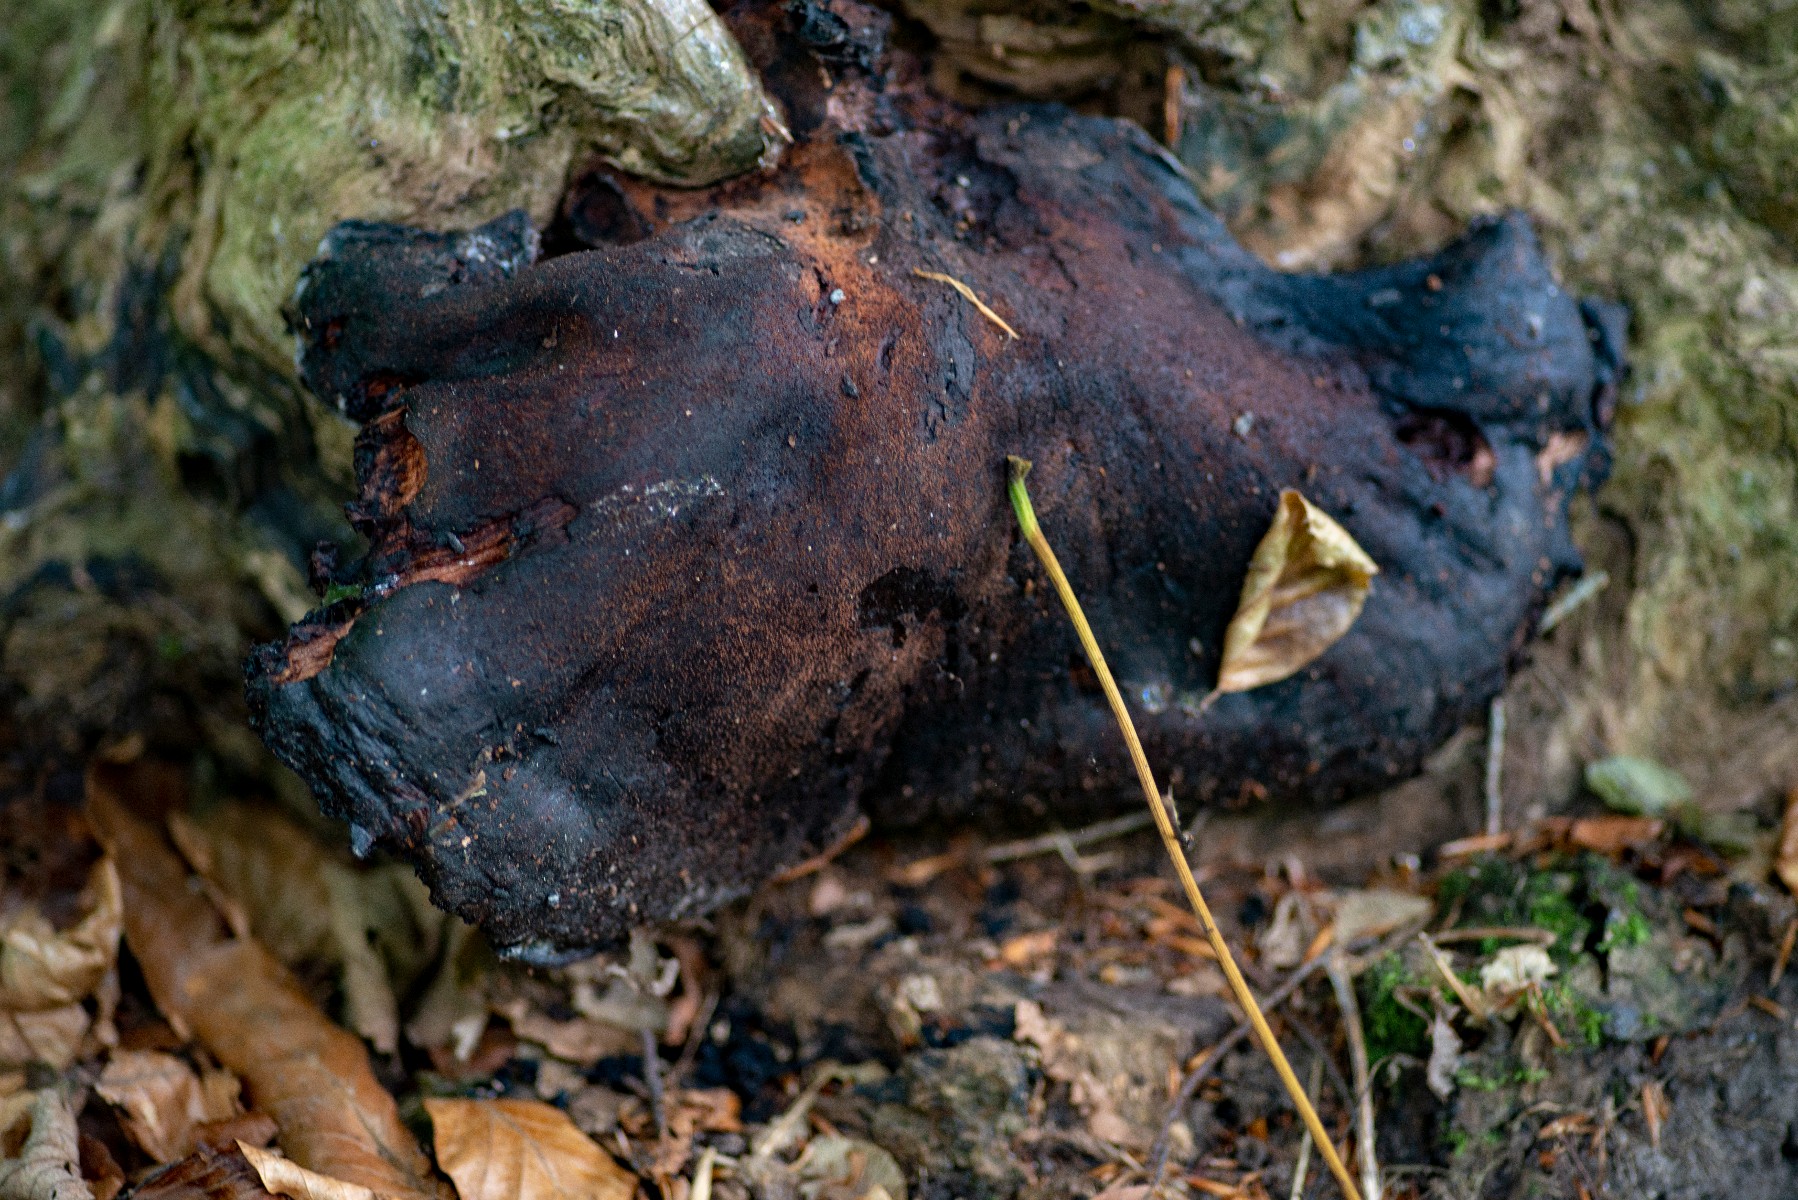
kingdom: Fungi
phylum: Basidiomycota
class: Agaricomycetes
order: Agaricales
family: Fistulinaceae
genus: Fistulina
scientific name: Fistulina hepatica
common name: oksetunge
